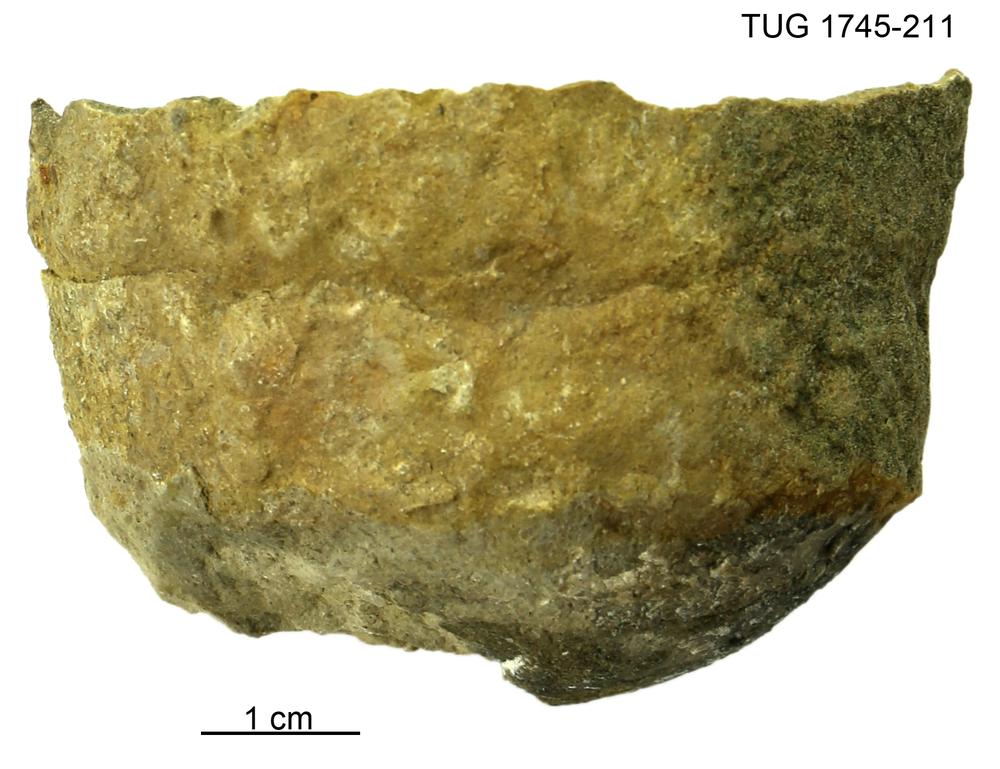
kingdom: Animalia
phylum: Mollusca
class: Cephalopoda
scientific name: Cephalopoda
